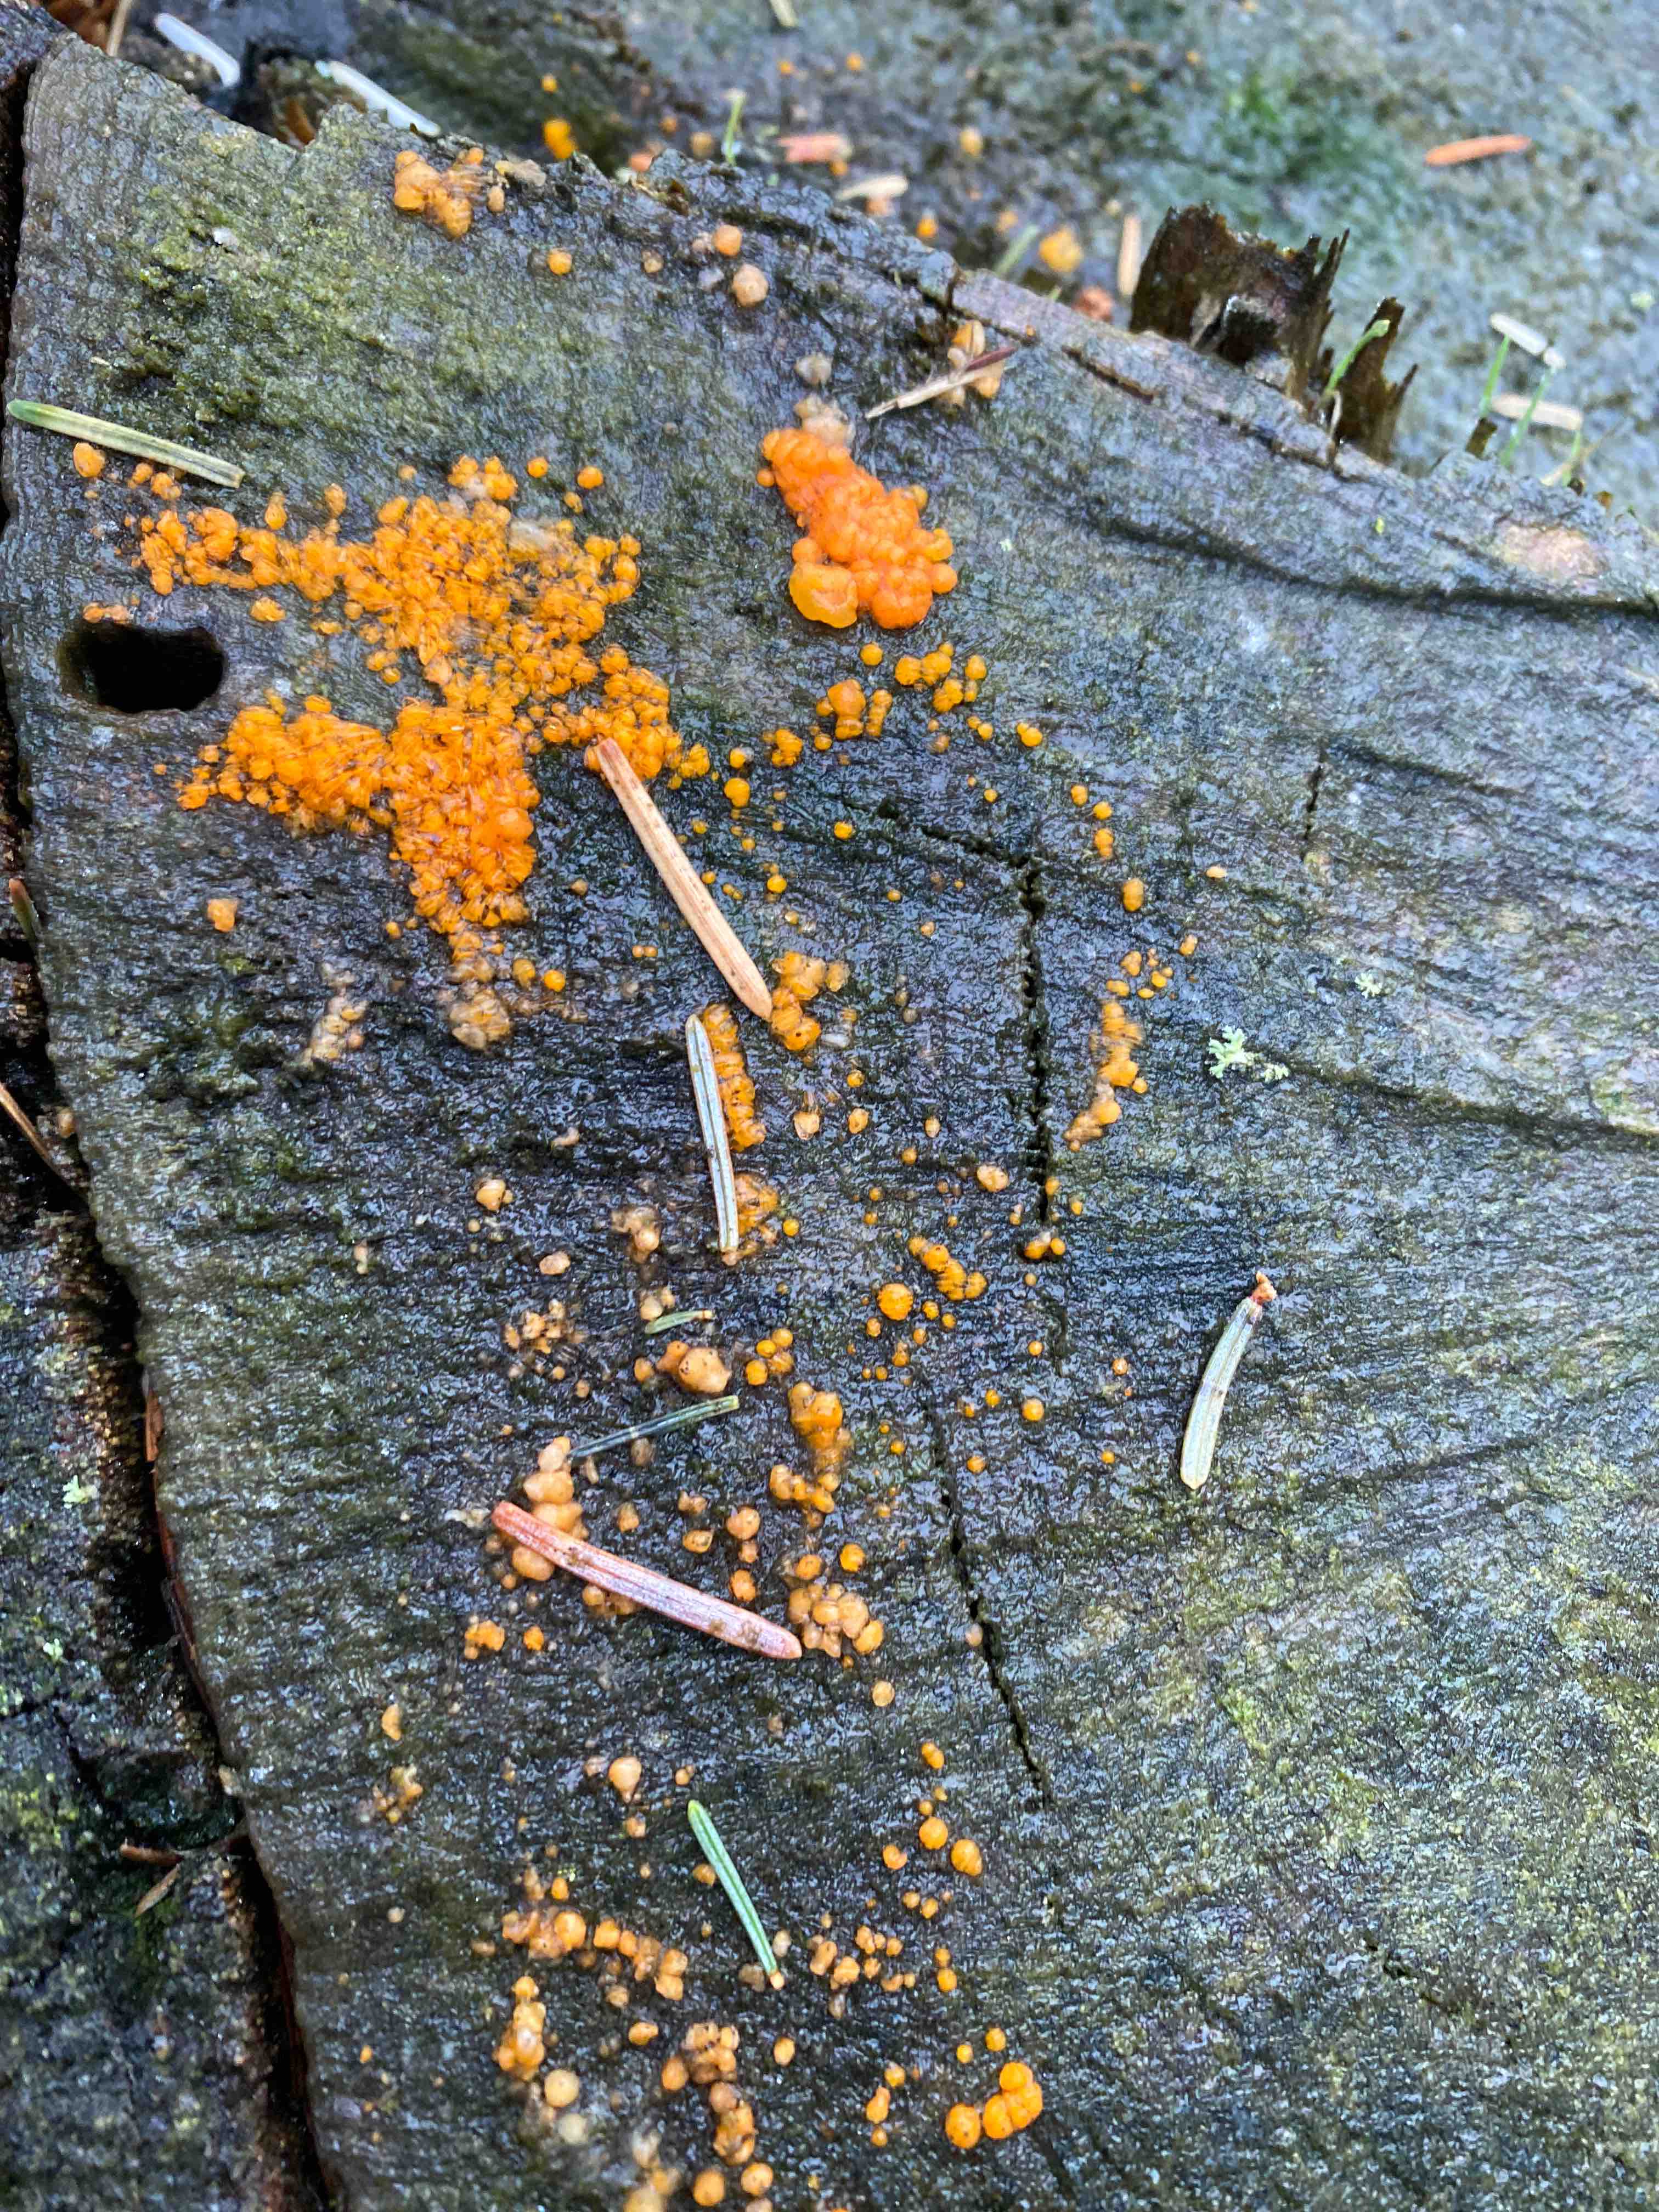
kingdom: Fungi
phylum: Basidiomycota
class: Dacrymycetes
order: Dacrymycetales
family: Dacrymycetaceae
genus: Dacrymyces
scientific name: Dacrymyces stillatus
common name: almindelig tåresvamp
